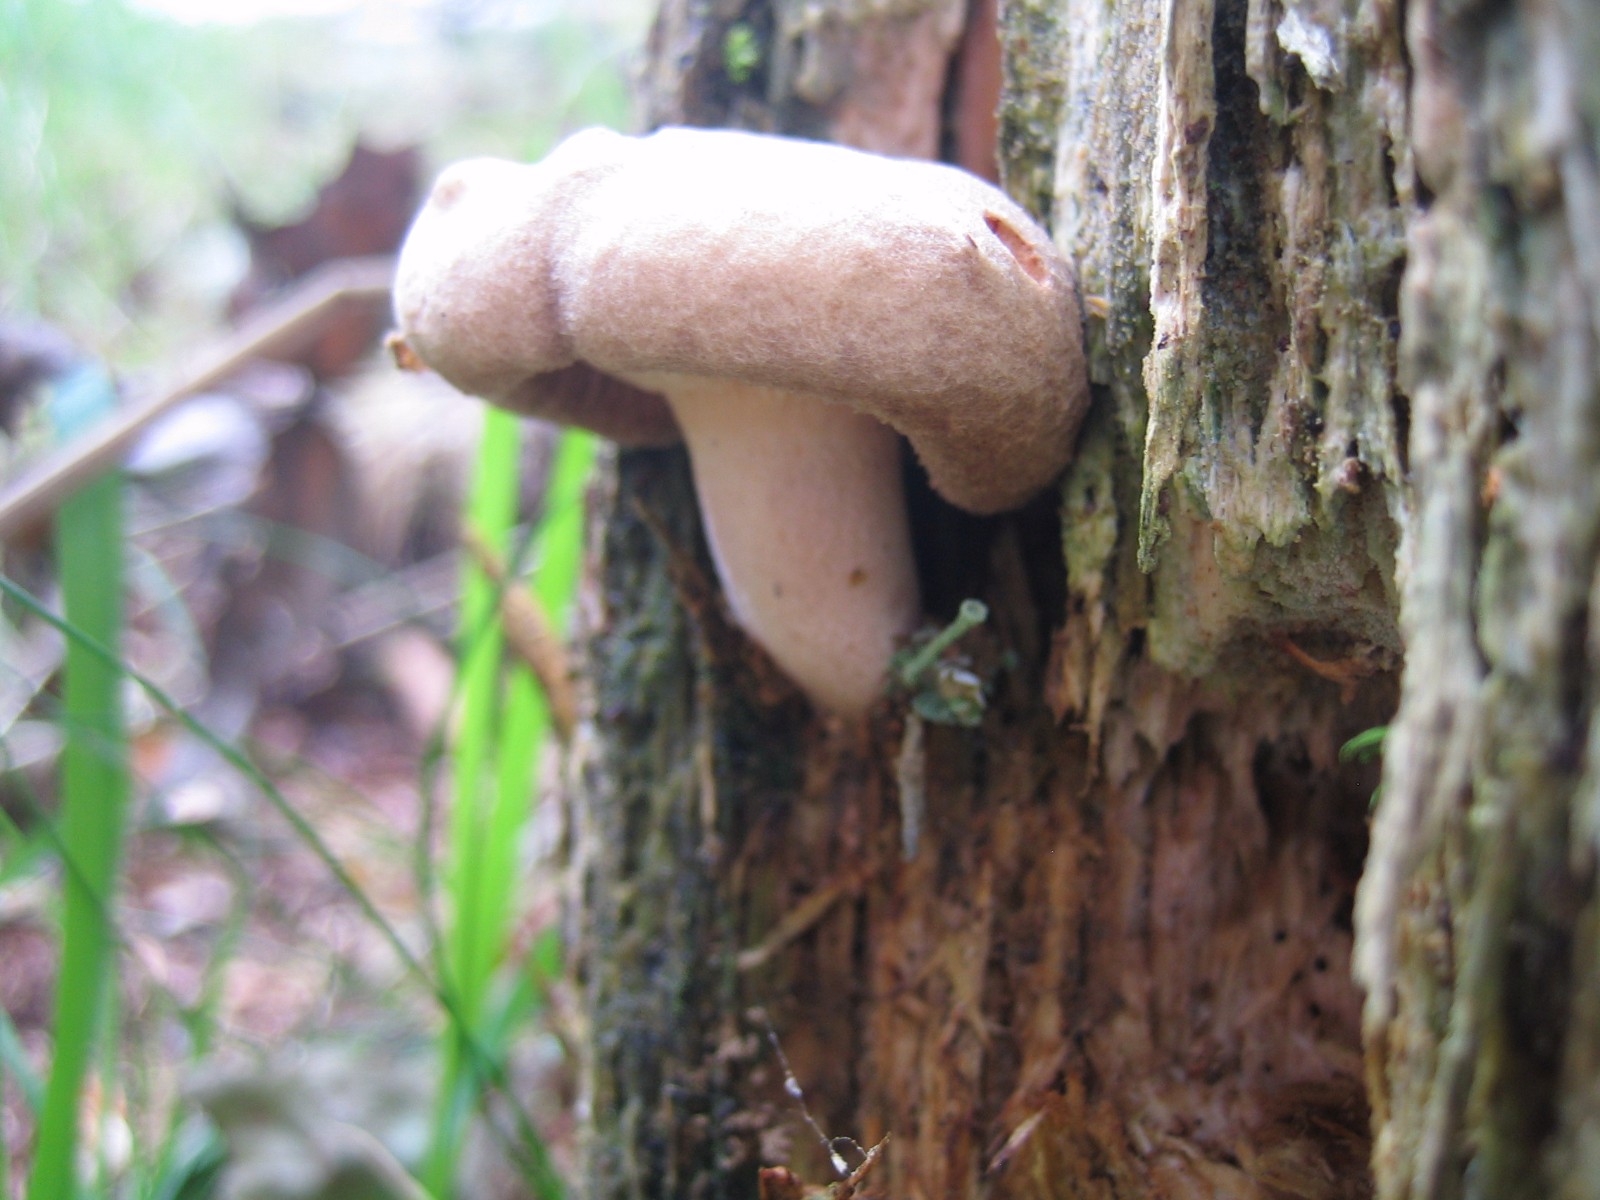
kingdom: Fungi
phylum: Basidiomycota
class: Agaricomycetes
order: Boletales
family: Paxillaceae
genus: Paxillus
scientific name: Paxillus involutus
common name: almindelig netbladhat
